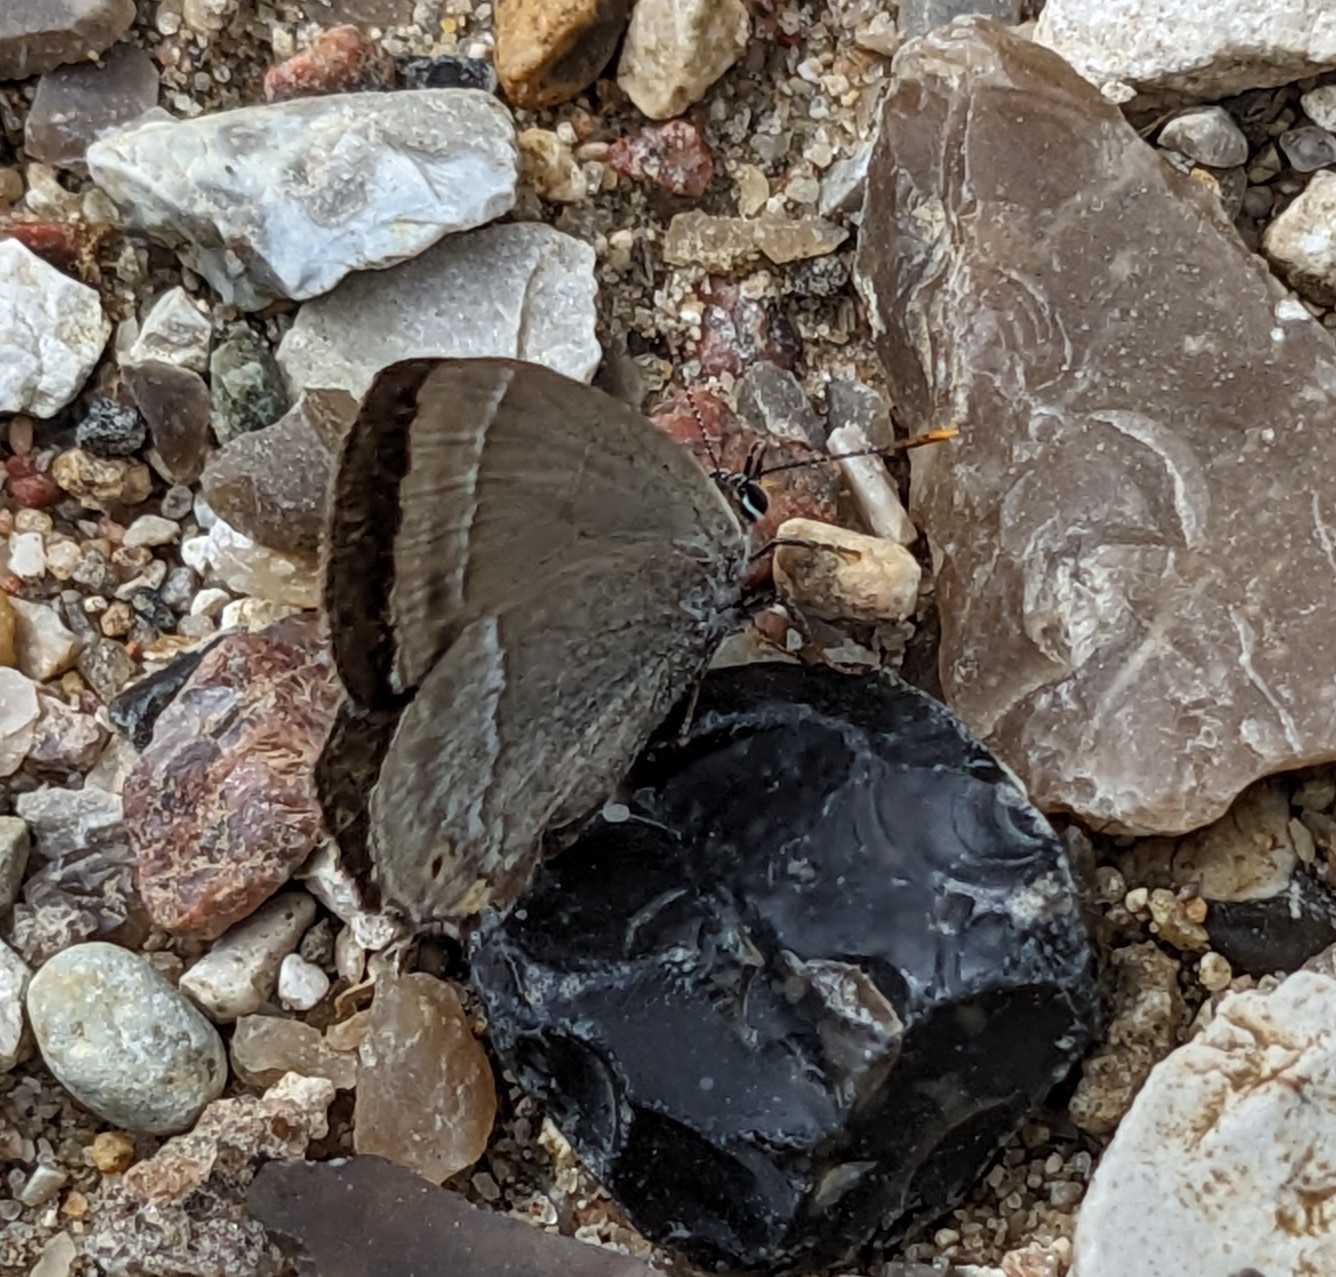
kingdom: Animalia
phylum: Arthropoda
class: Insecta
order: Lepidoptera
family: Lycaenidae
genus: Quercusia
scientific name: Quercusia quercus
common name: Blåhale
